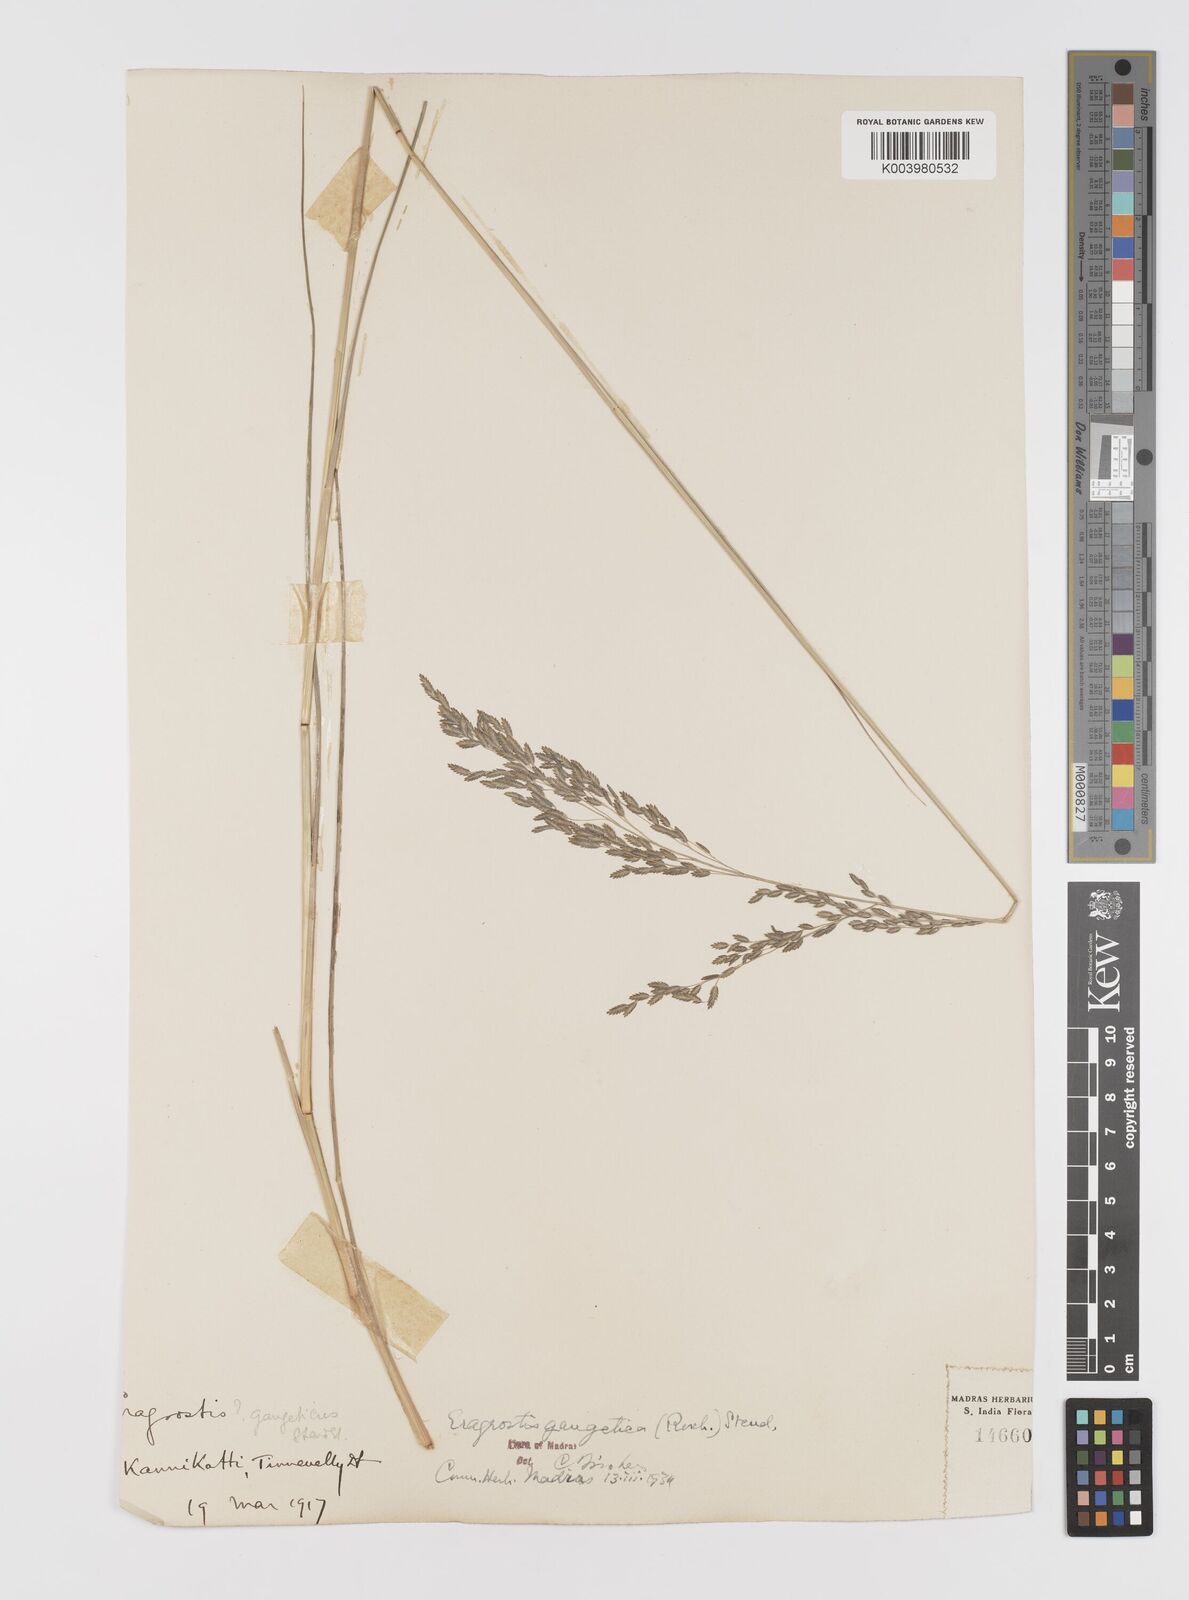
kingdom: Plantae
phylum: Tracheophyta
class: Liliopsida
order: Poales
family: Poaceae
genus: Eragrostis
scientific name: Eragrostis
